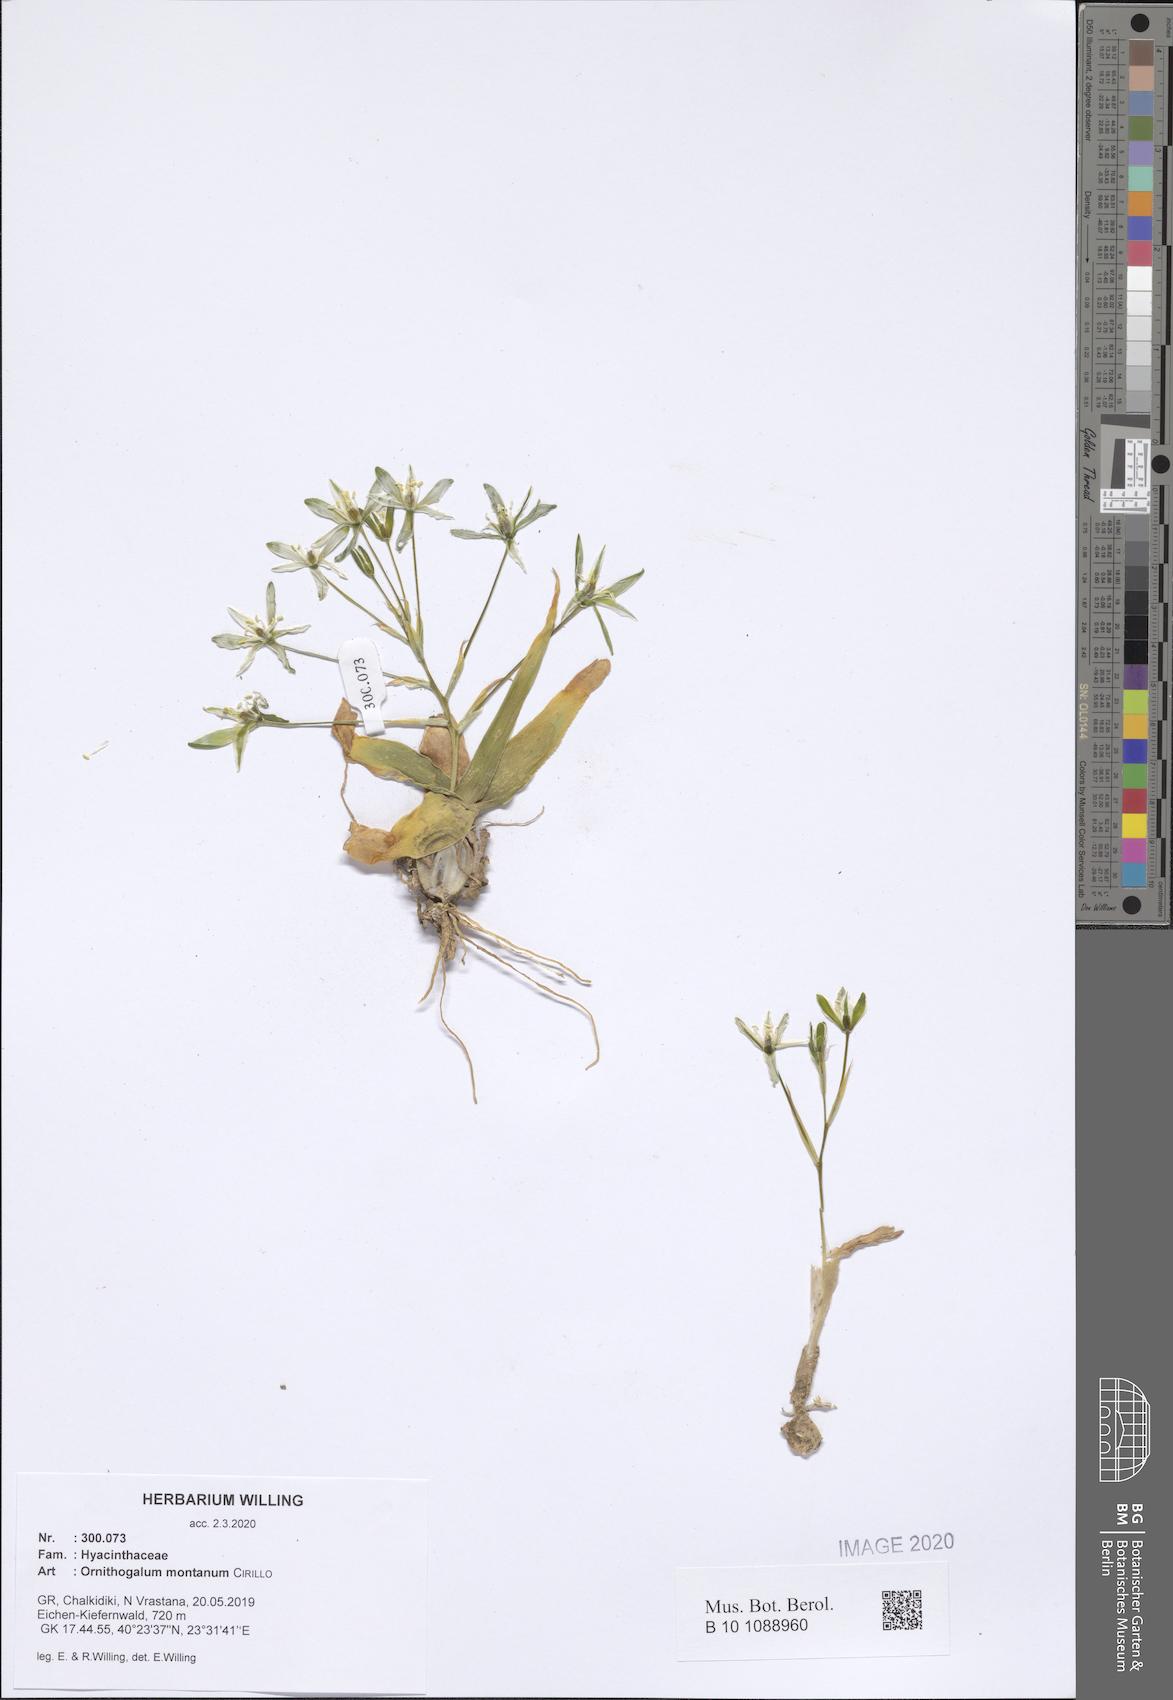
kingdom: Plantae
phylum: Tracheophyta
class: Liliopsida
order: Asparagales
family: Asparagaceae
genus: Ornithogalum
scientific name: Ornithogalum montanum
